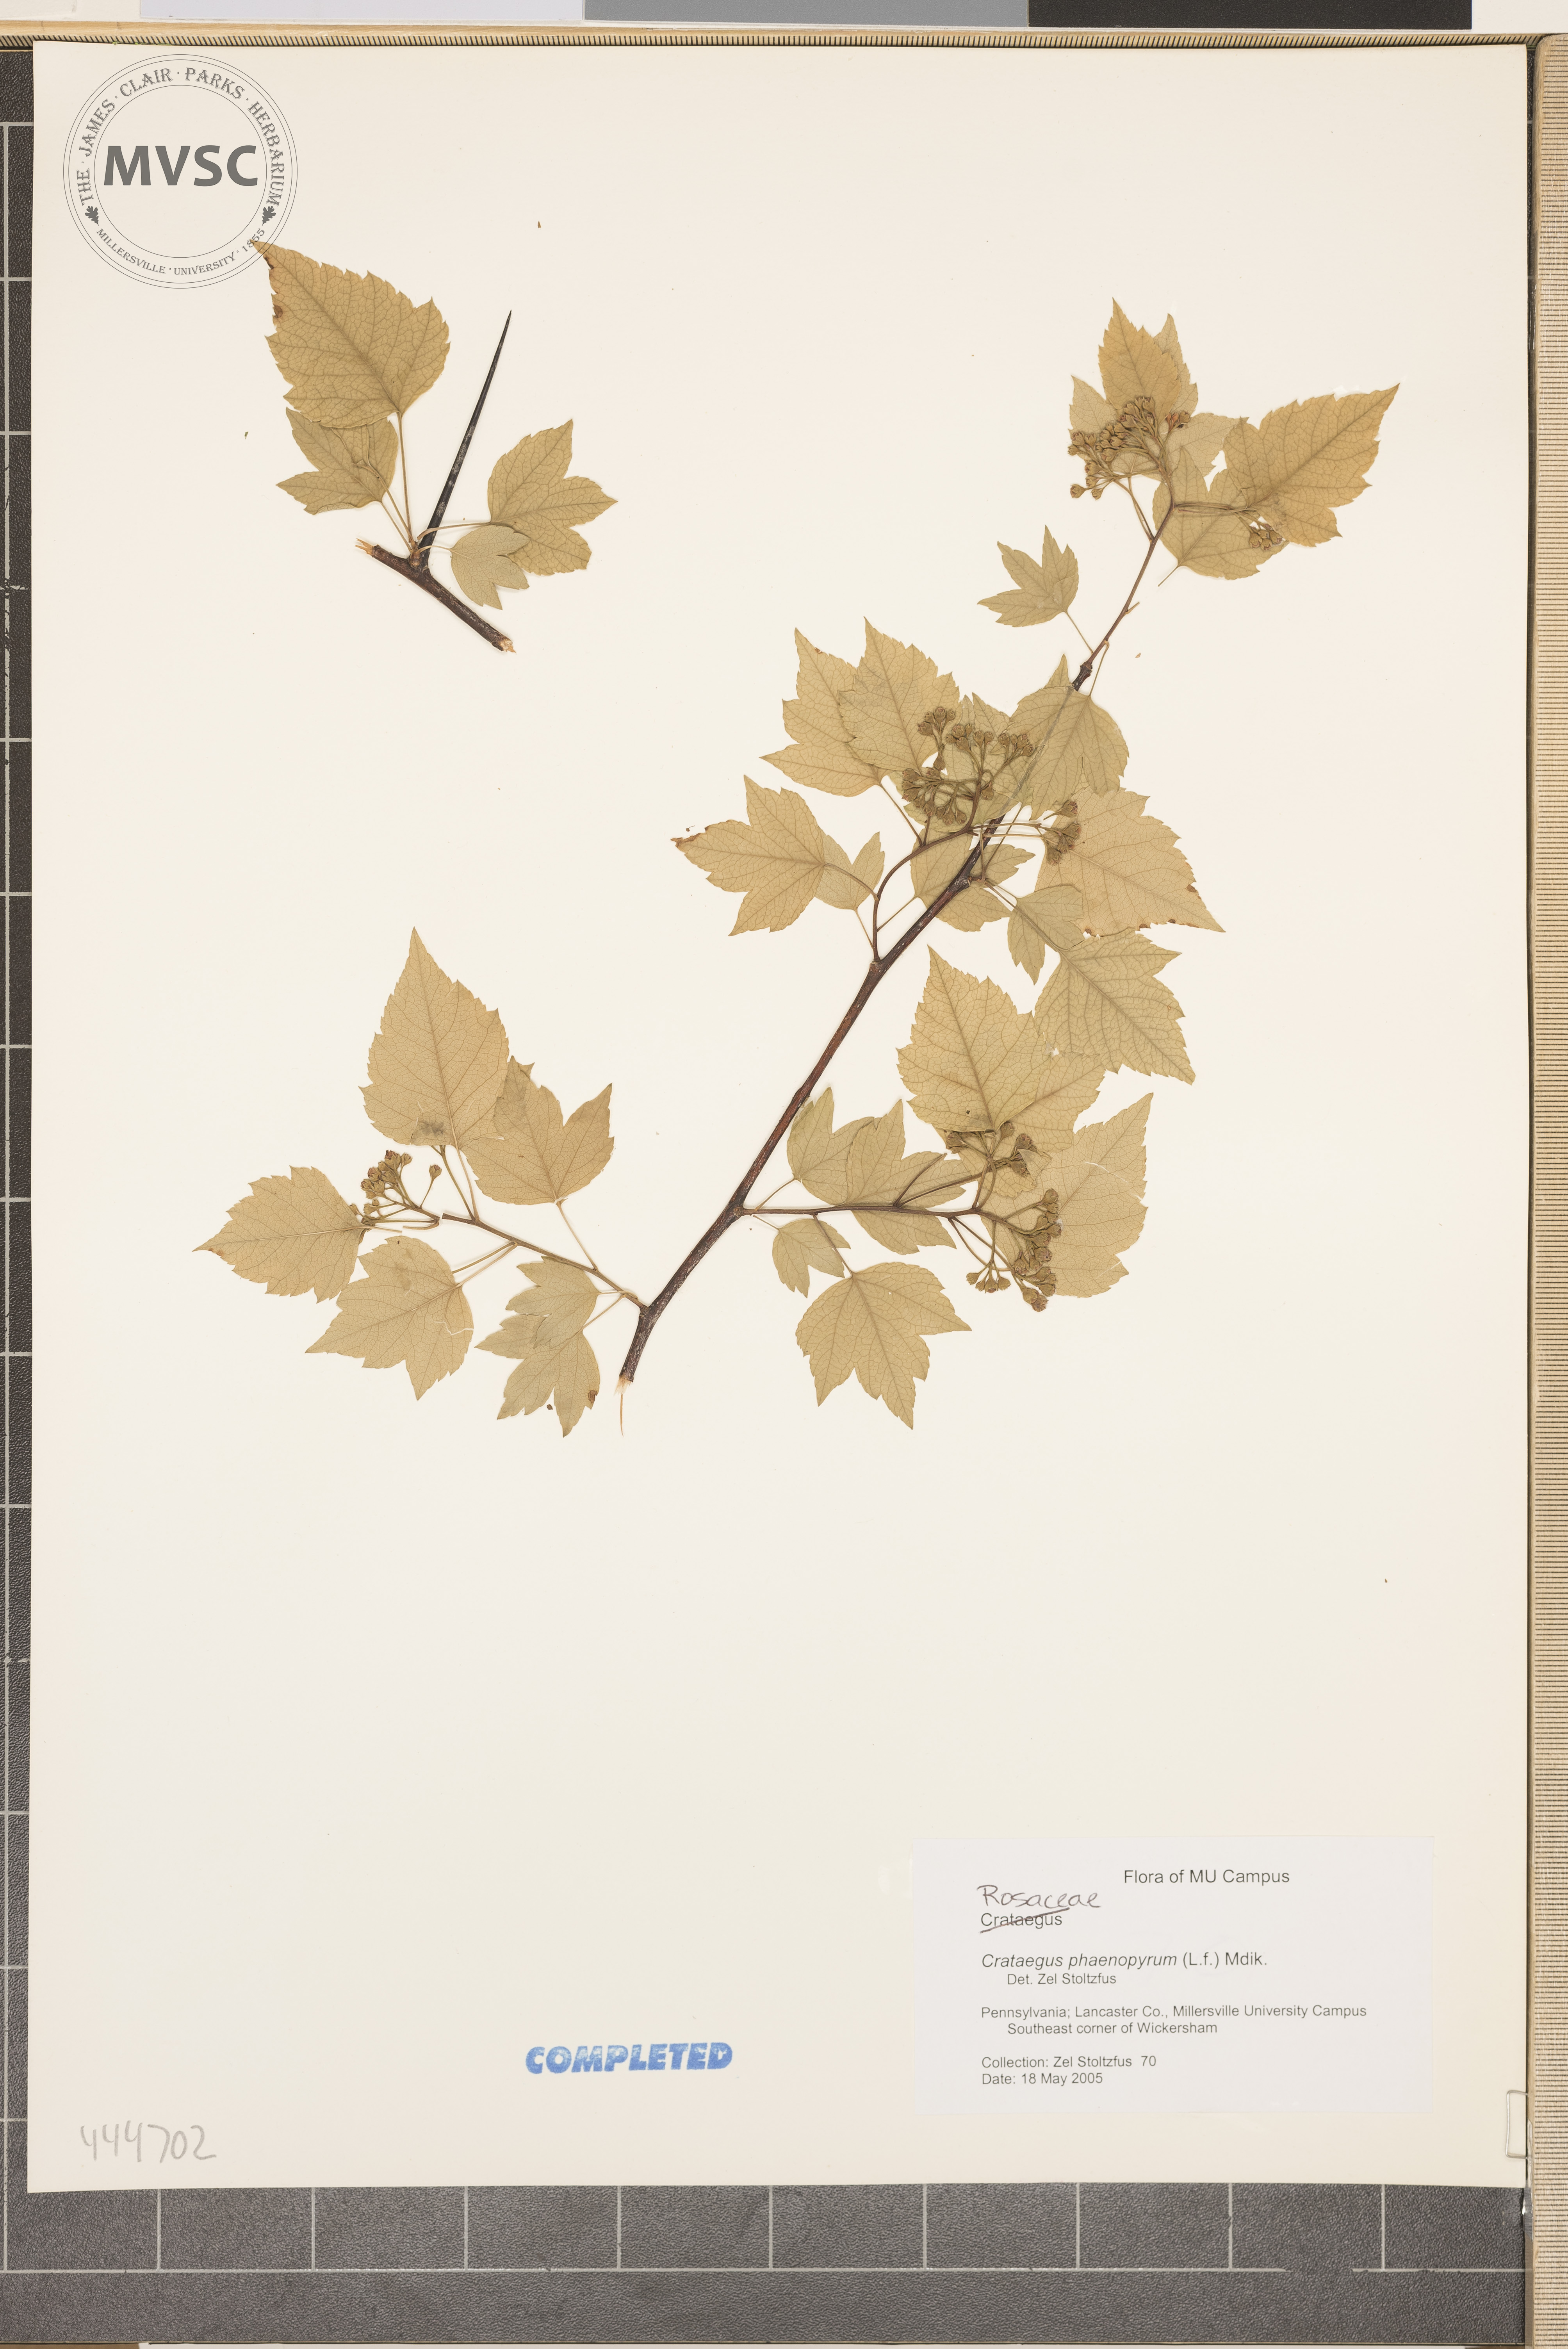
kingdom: Plantae
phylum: Tracheophyta
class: Magnoliopsida
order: Rosales
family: Rosaceae
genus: Crataegus
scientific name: Crataegus phaenopyrum
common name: Washington hawthorn
